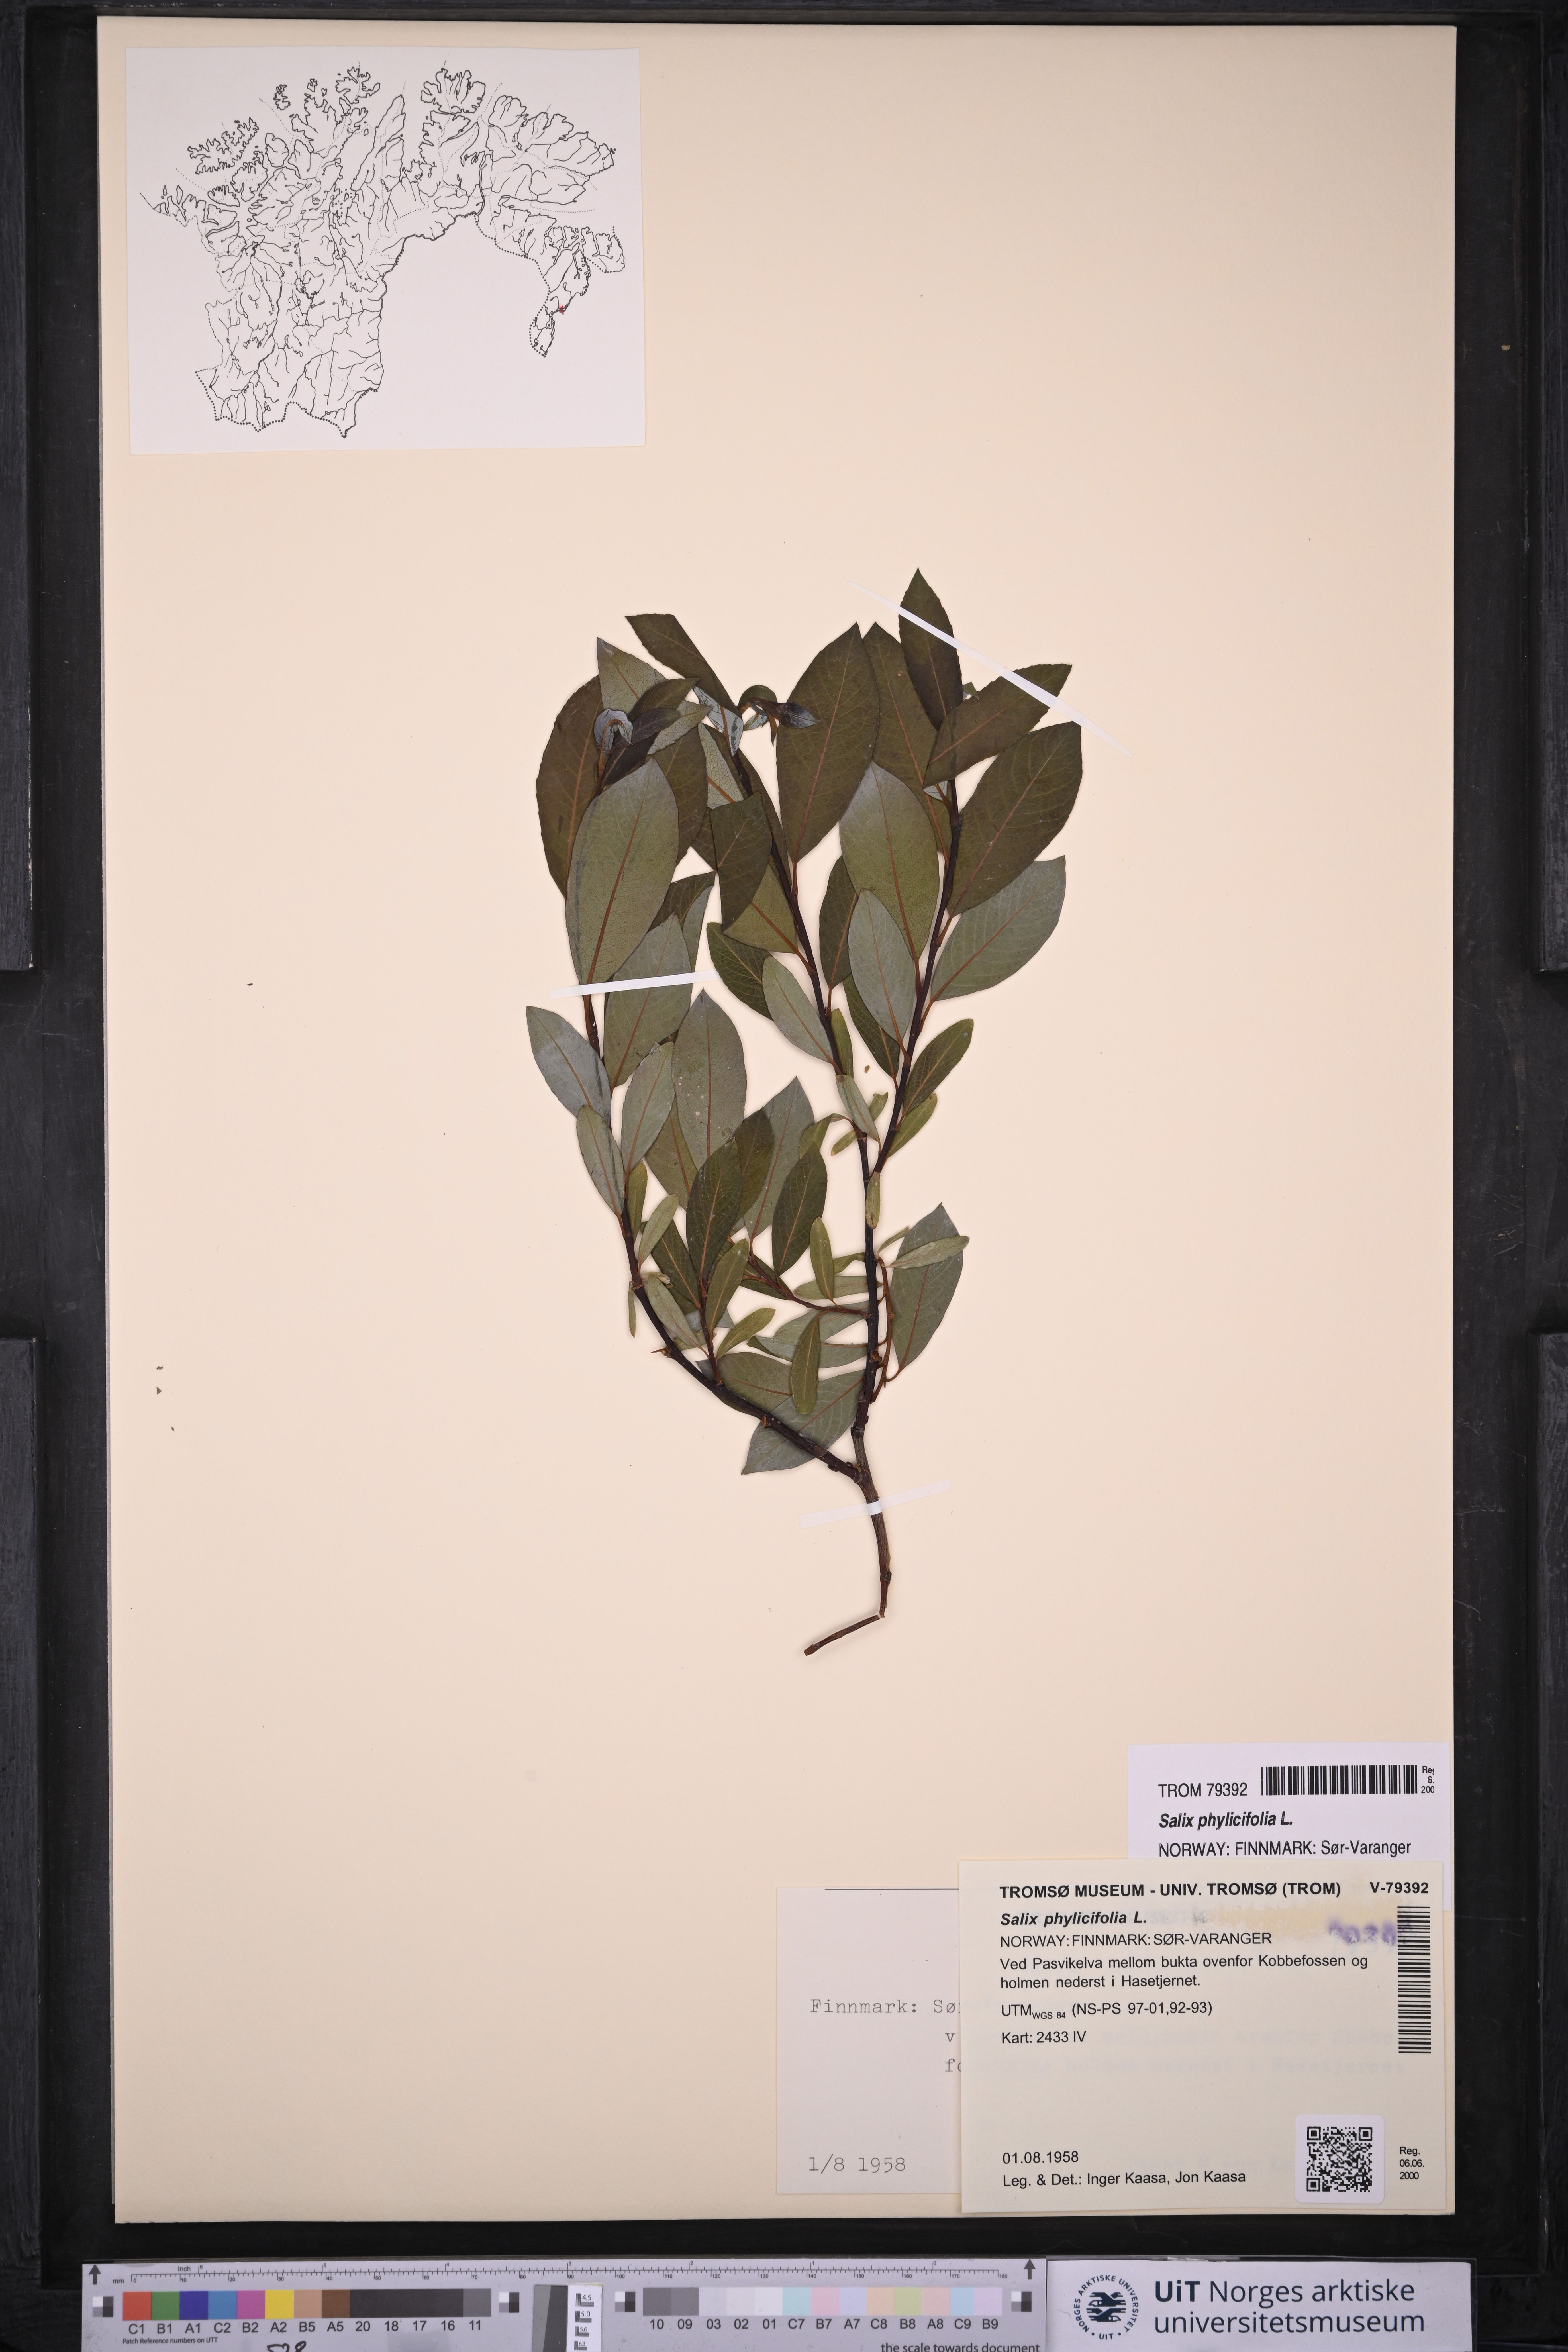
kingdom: Plantae
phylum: Tracheophyta
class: Magnoliopsida
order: Malpighiales
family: Salicaceae
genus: Salix
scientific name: Salix phylicifolia
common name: Tea-leaved willow
